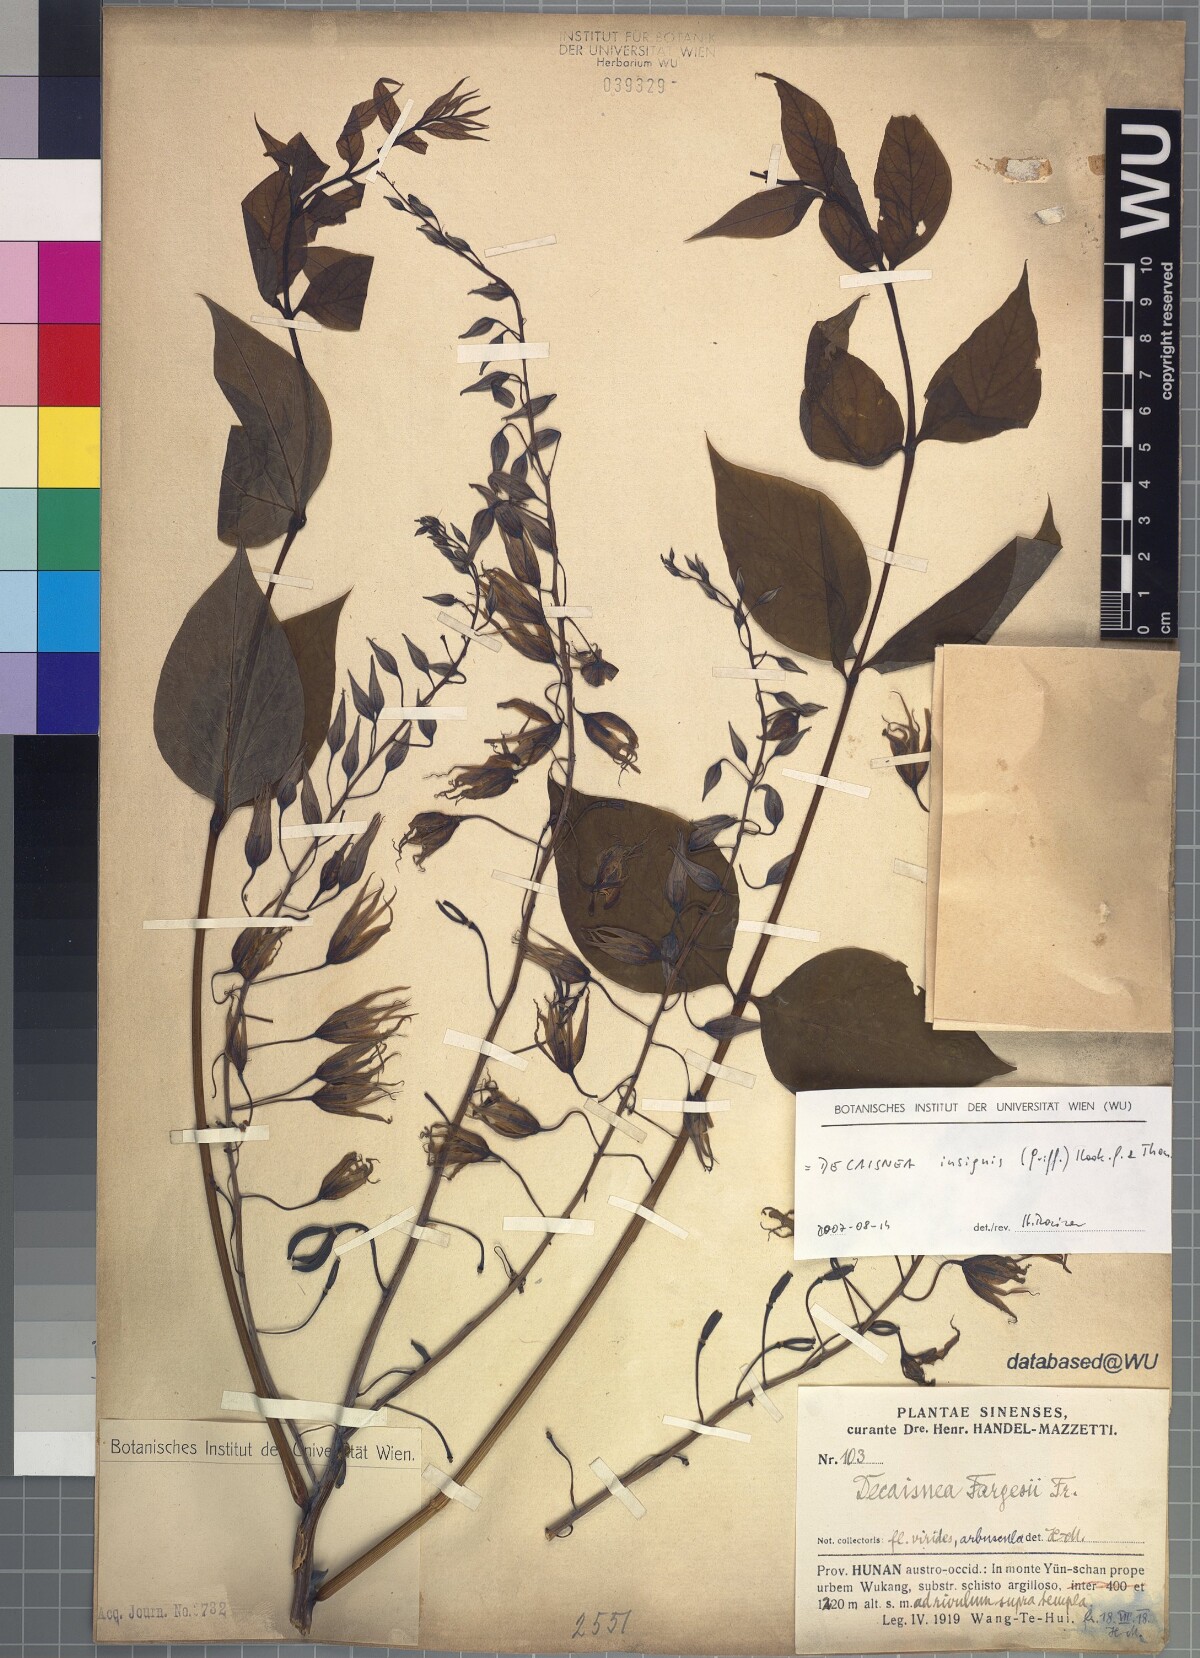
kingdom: Plantae
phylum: Tracheophyta
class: Magnoliopsida
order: Ranunculales
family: Lardizabalaceae
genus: Decaisnea
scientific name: Decaisnea insignis
